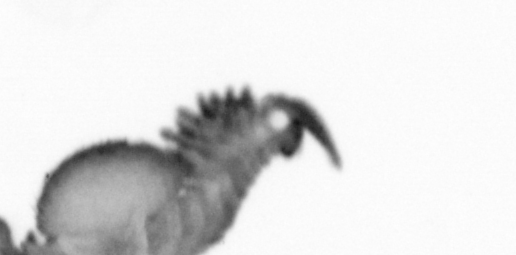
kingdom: Animalia
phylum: Annelida
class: Polychaeta
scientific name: Polychaeta
